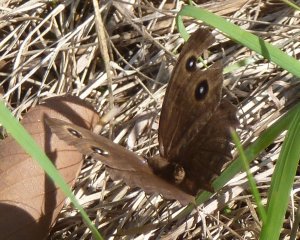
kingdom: Animalia
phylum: Arthropoda
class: Insecta
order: Lepidoptera
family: Nymphalidae
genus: Cercyonis
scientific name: Cercyonis pegala
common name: Common Wood-Nymph
